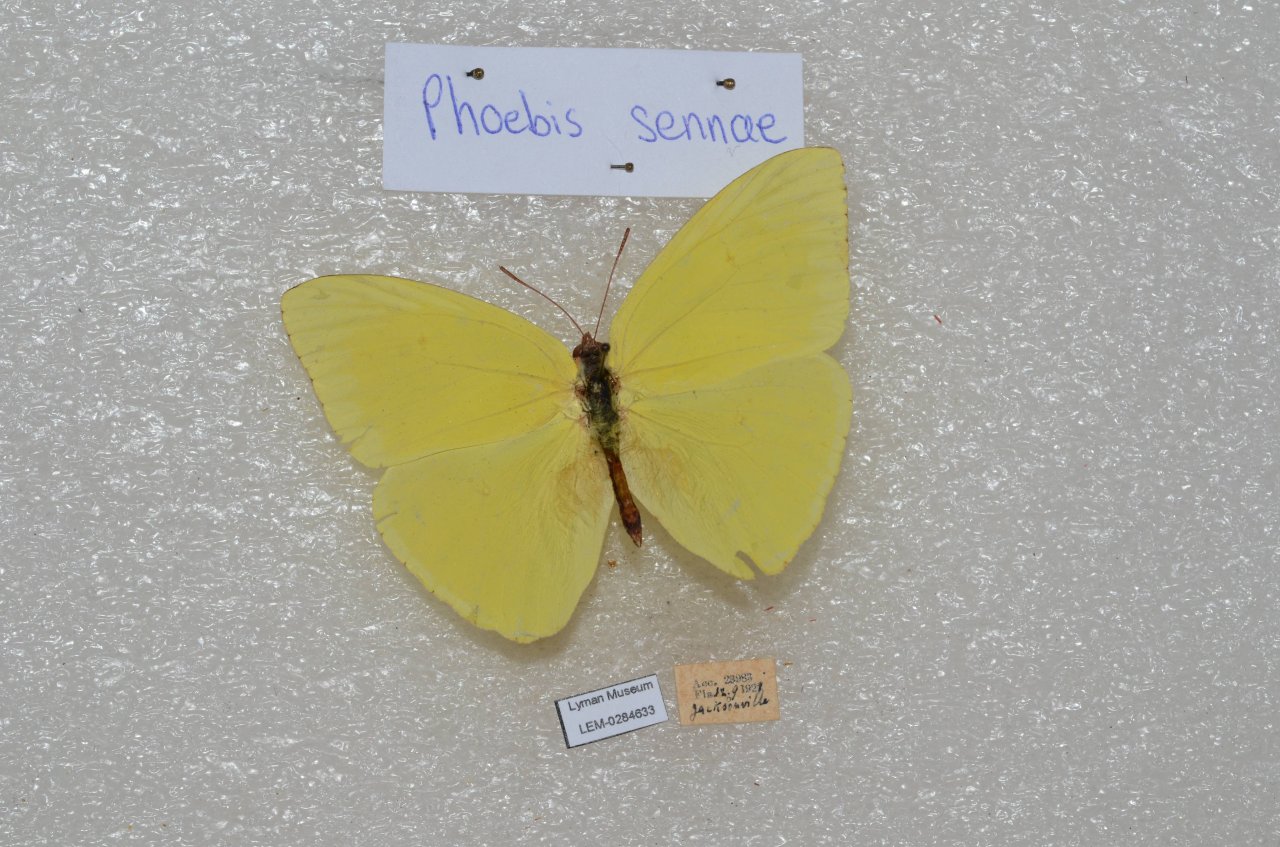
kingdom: Animalia
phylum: Arthropoda
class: Insecta
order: Lepidoptera
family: Pieridae
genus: Phoebis
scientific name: Phoebis sennae
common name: Cloudless Sulphur
